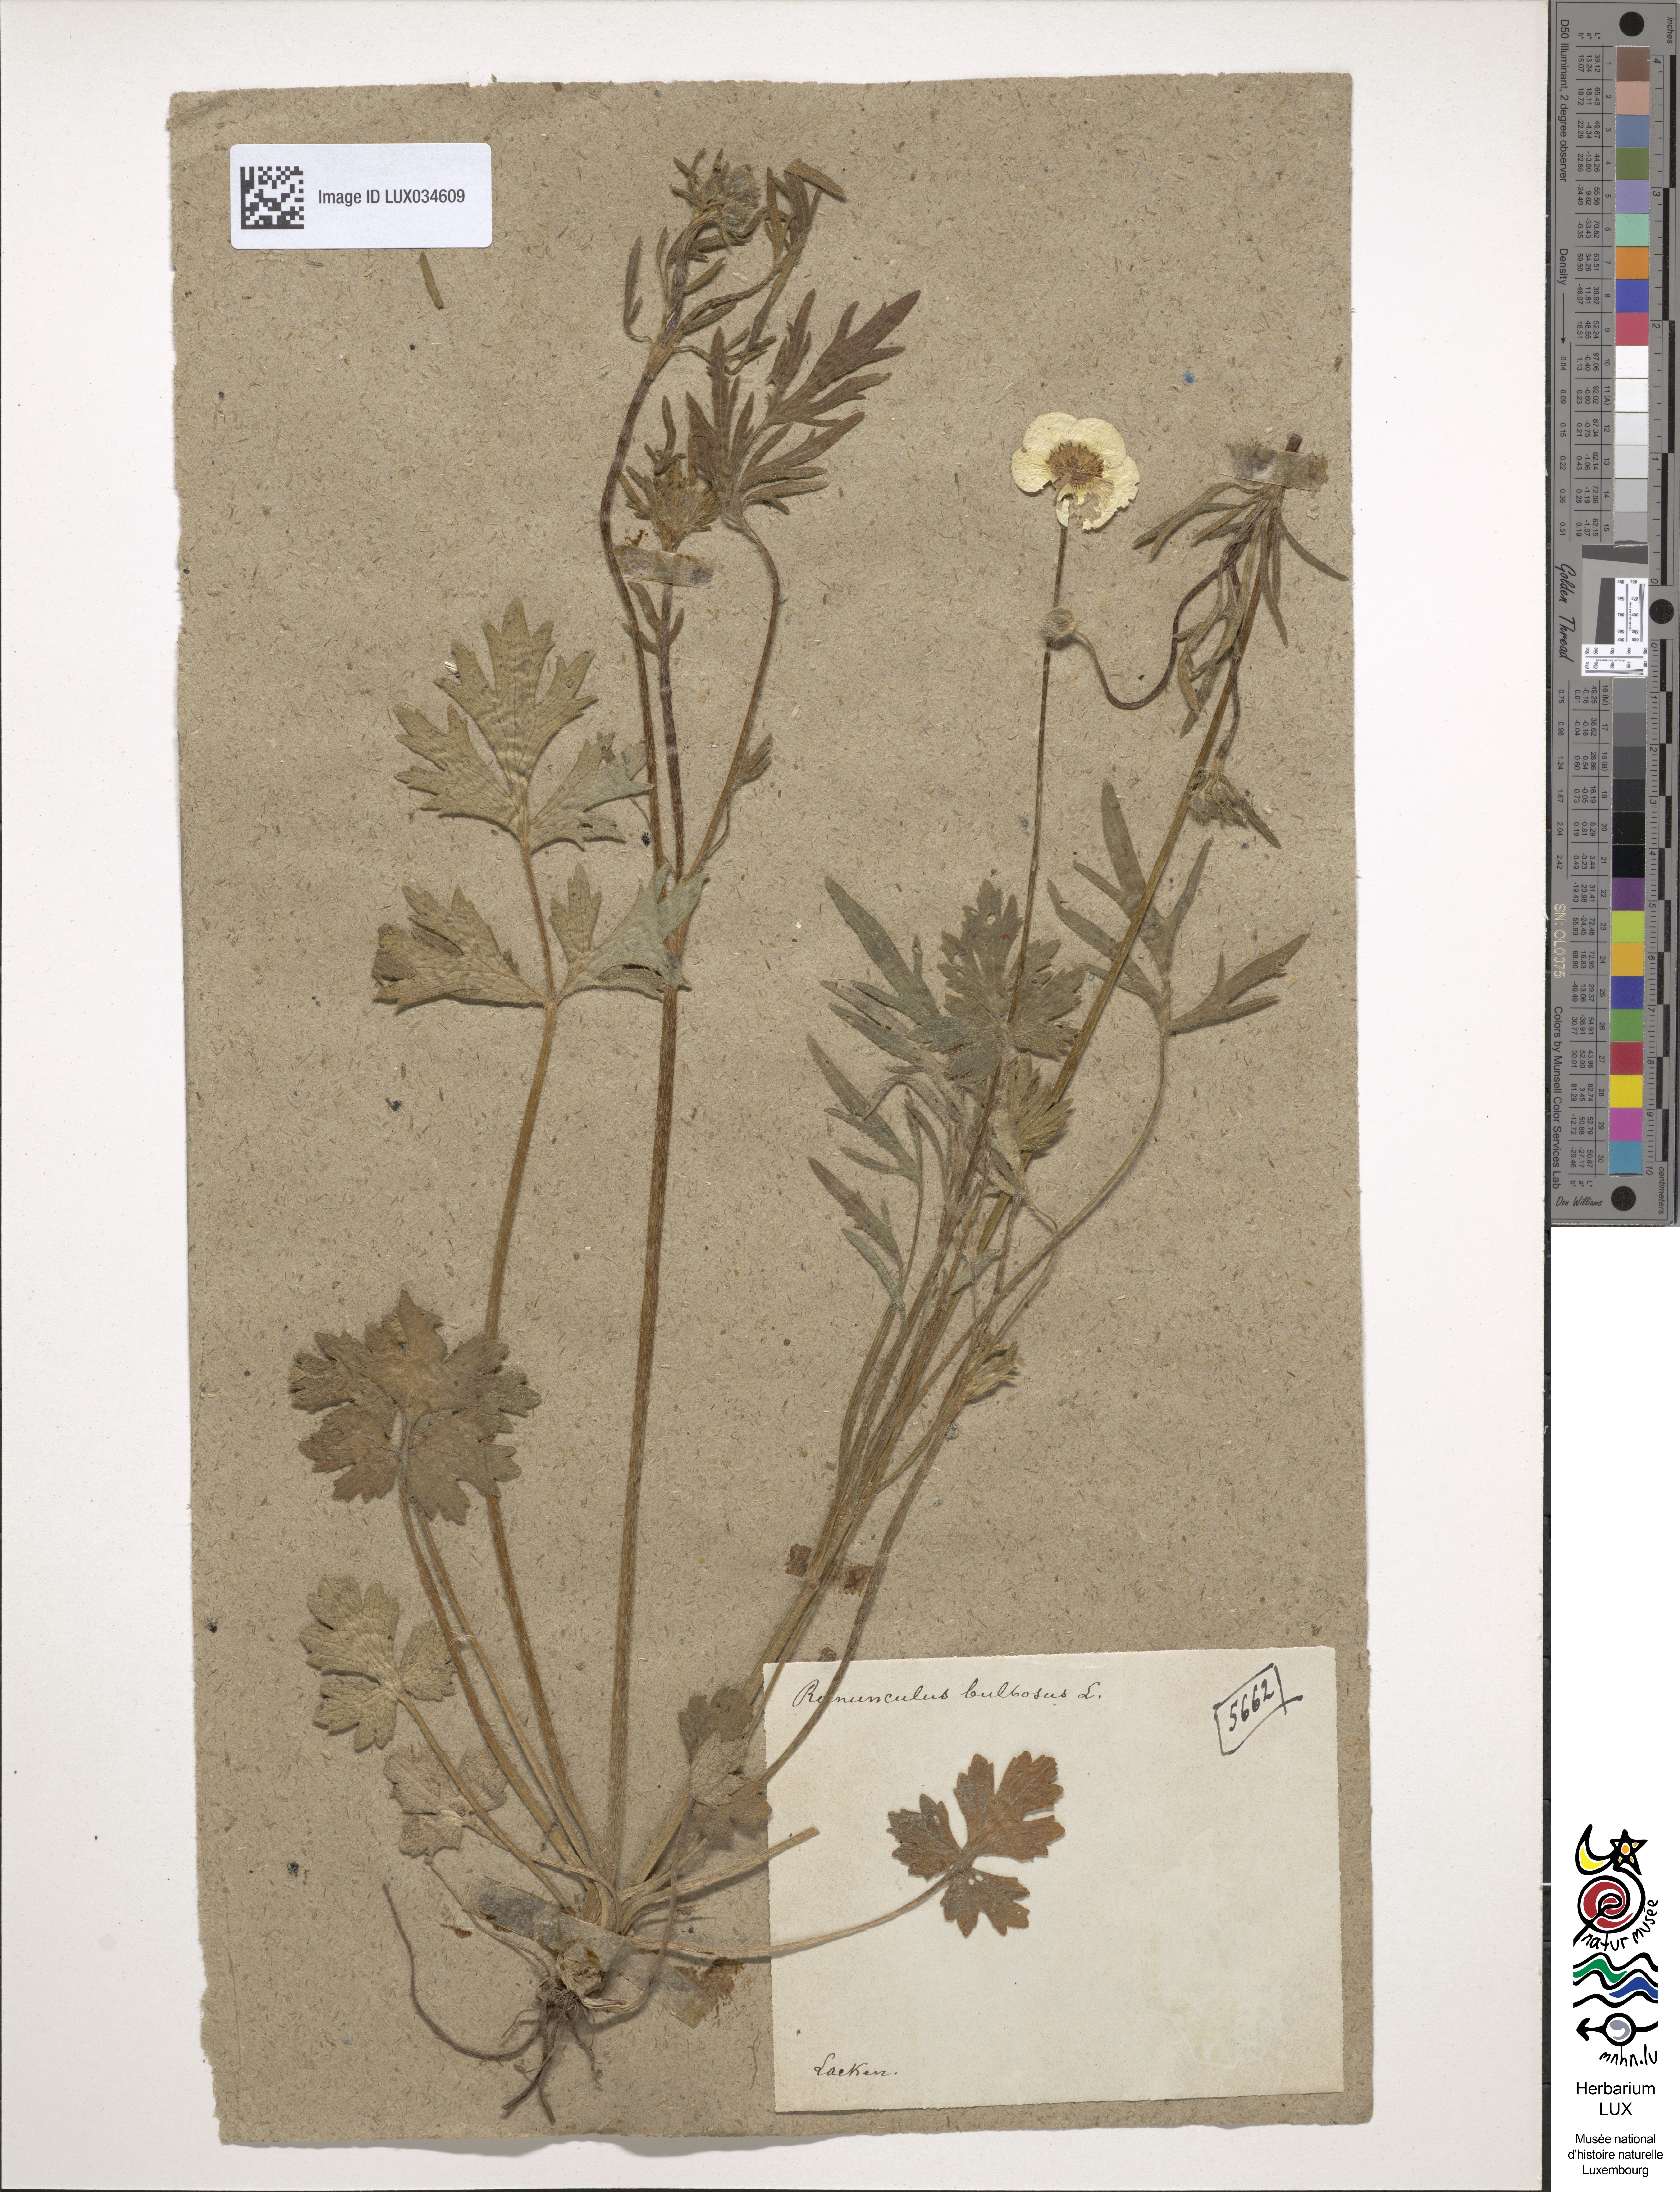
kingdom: Plantae
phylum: Tracheophyta
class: Magnoliopsida
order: Ranunculales
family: Ranunculaceae
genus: Ranunculus
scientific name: Ranunculus bulbosus
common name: Bulbous buttercup
